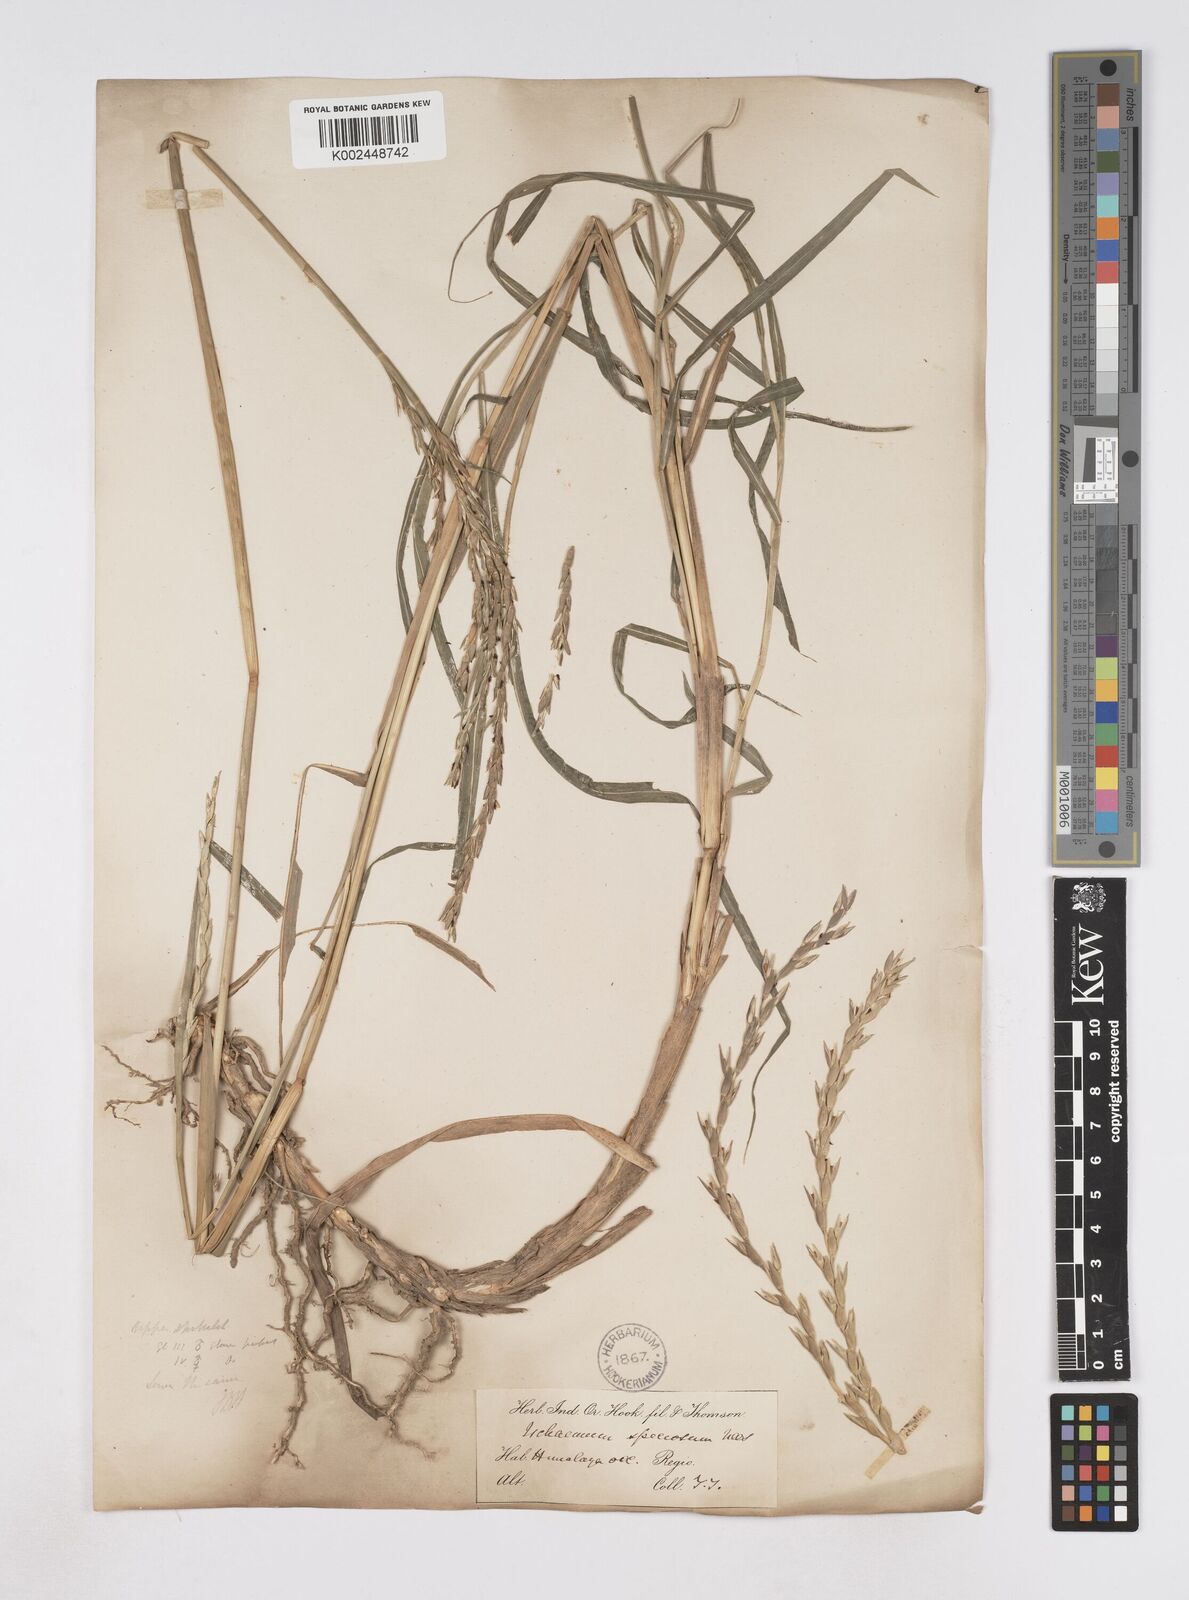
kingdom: Plantae
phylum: Tracheophyta
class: Liliopsida
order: Poales
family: Poaceae
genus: Phacelurus
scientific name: Phacelurus speciosus
